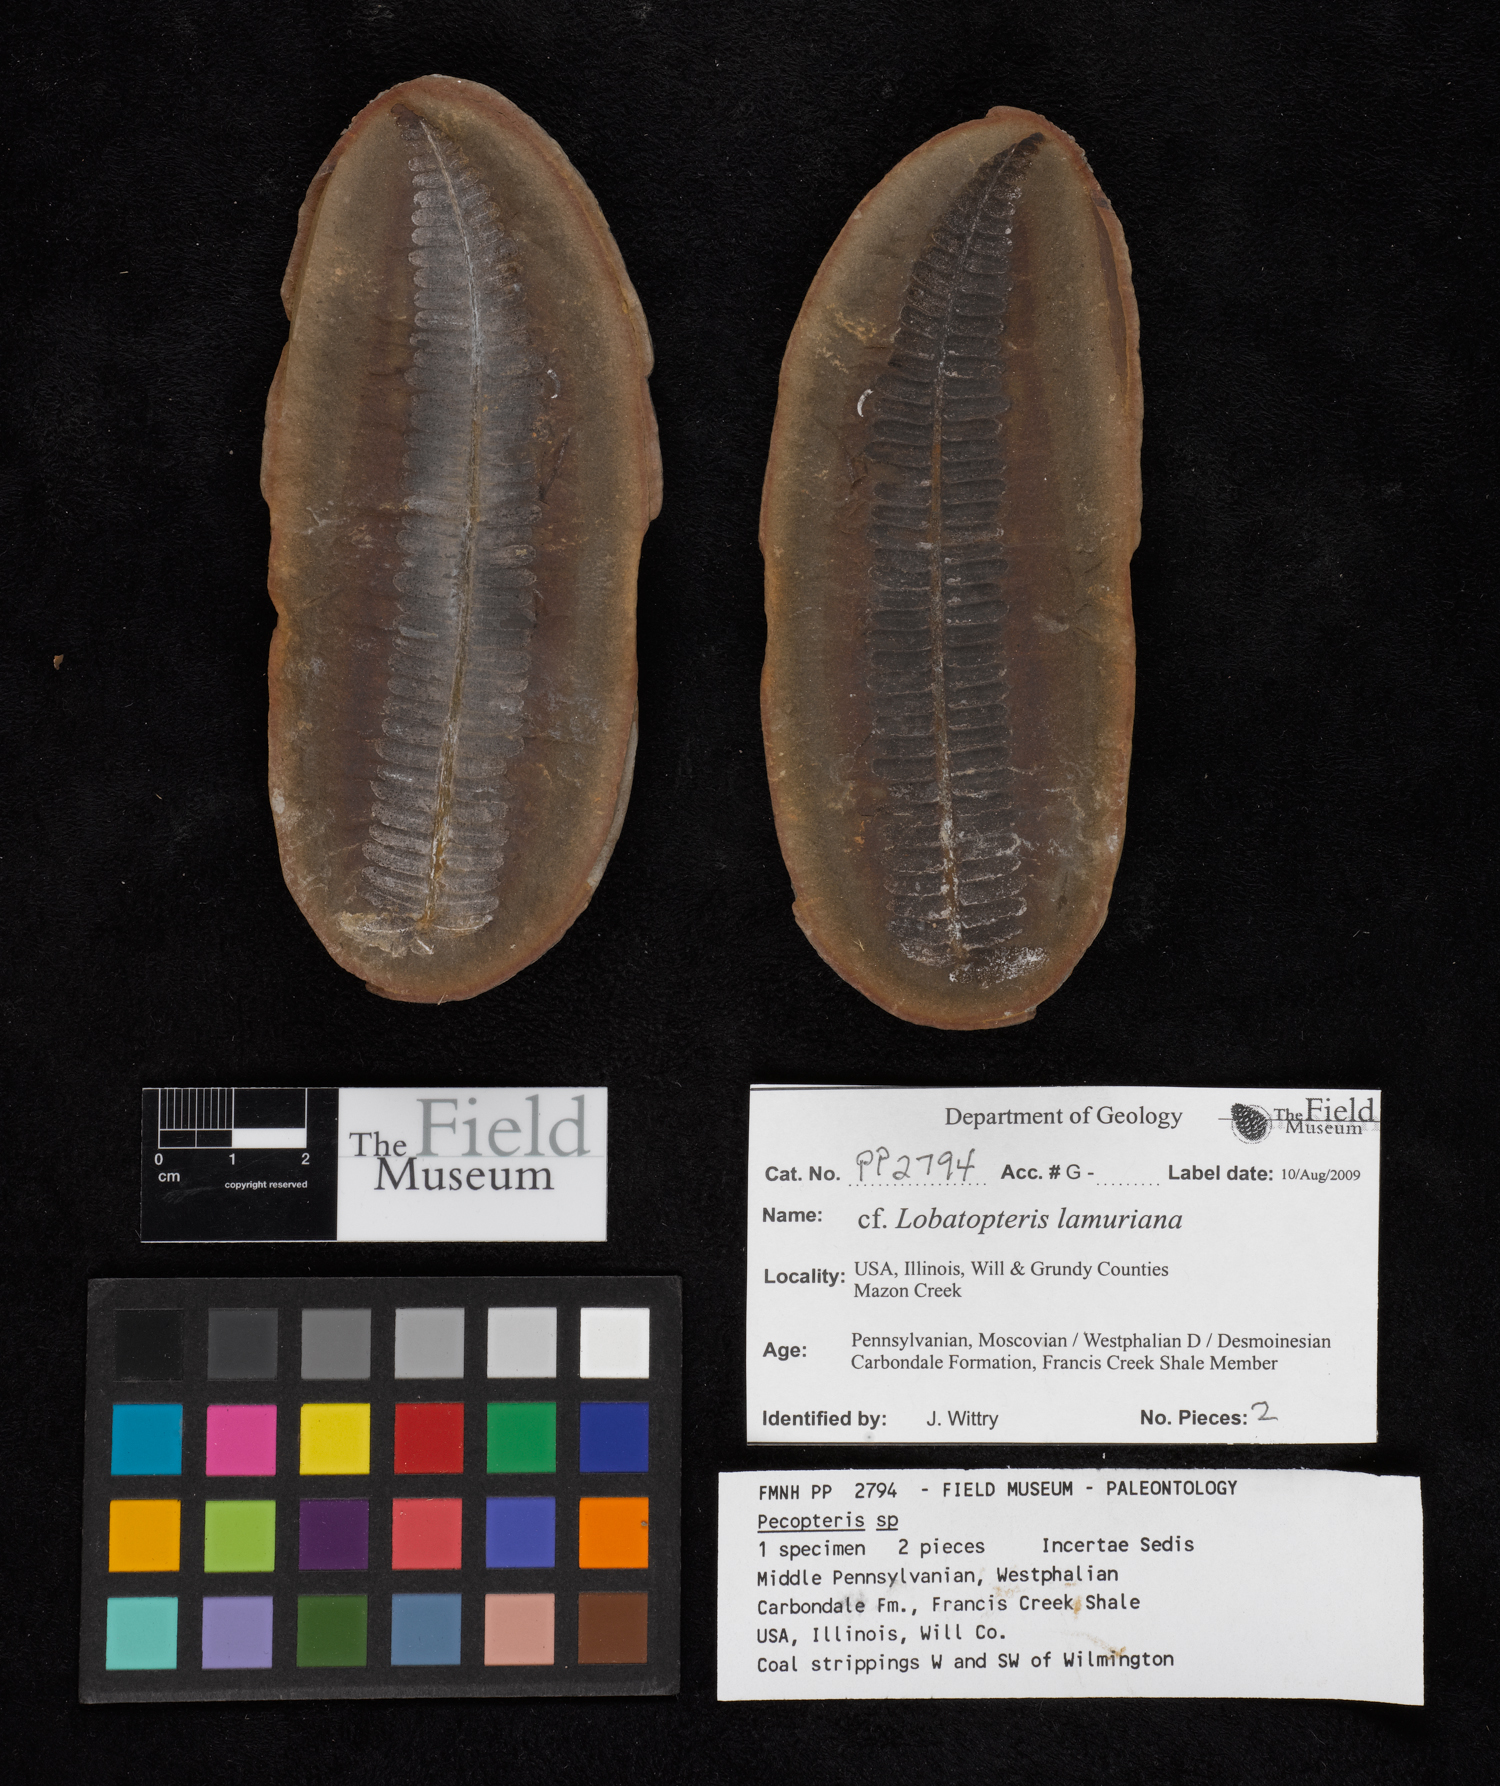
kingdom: Plantae
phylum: Tracheophyta
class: Polypodiopsida
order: Marattiales
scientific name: Marattiales
